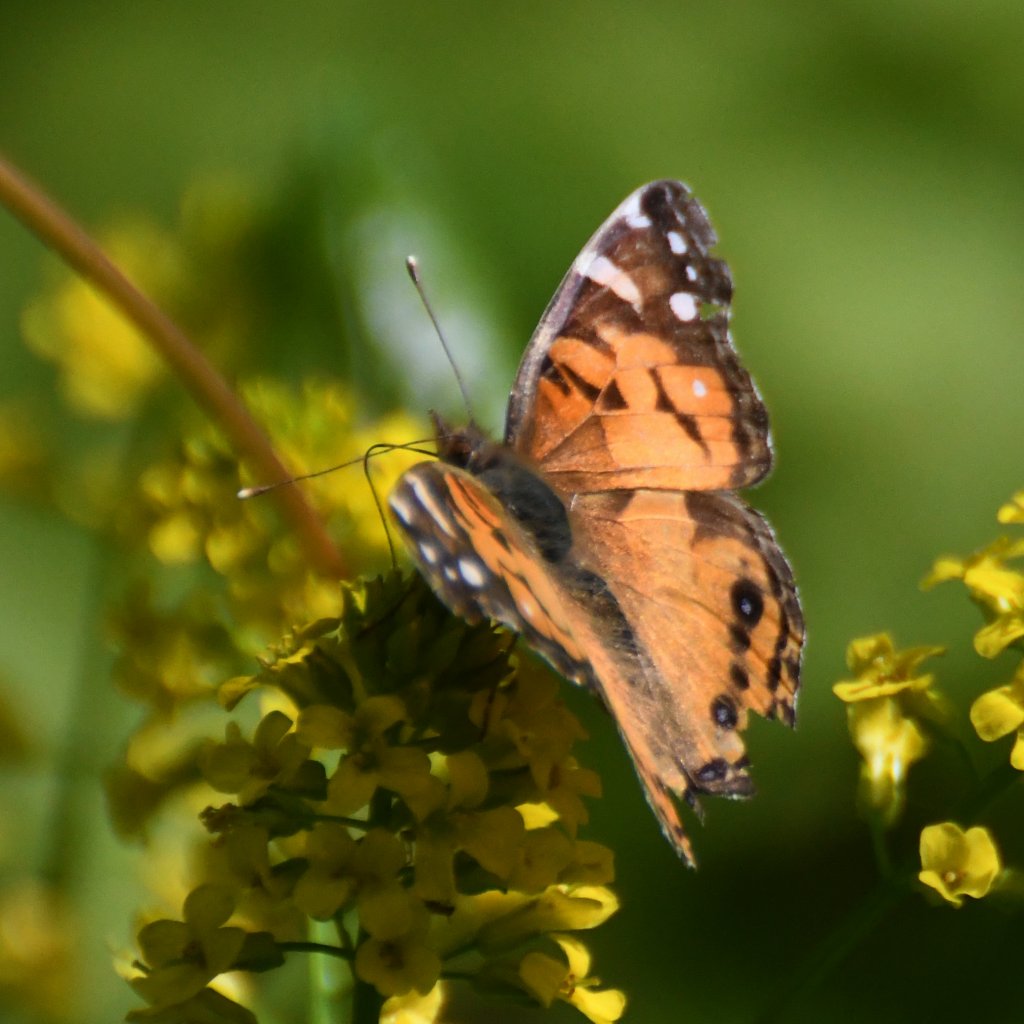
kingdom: Animalia
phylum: Arthropoda
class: Insecta
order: Lepidoptera
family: Nymphalidae
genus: Vanessa
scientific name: Vanessa virginiensis
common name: American Lady
